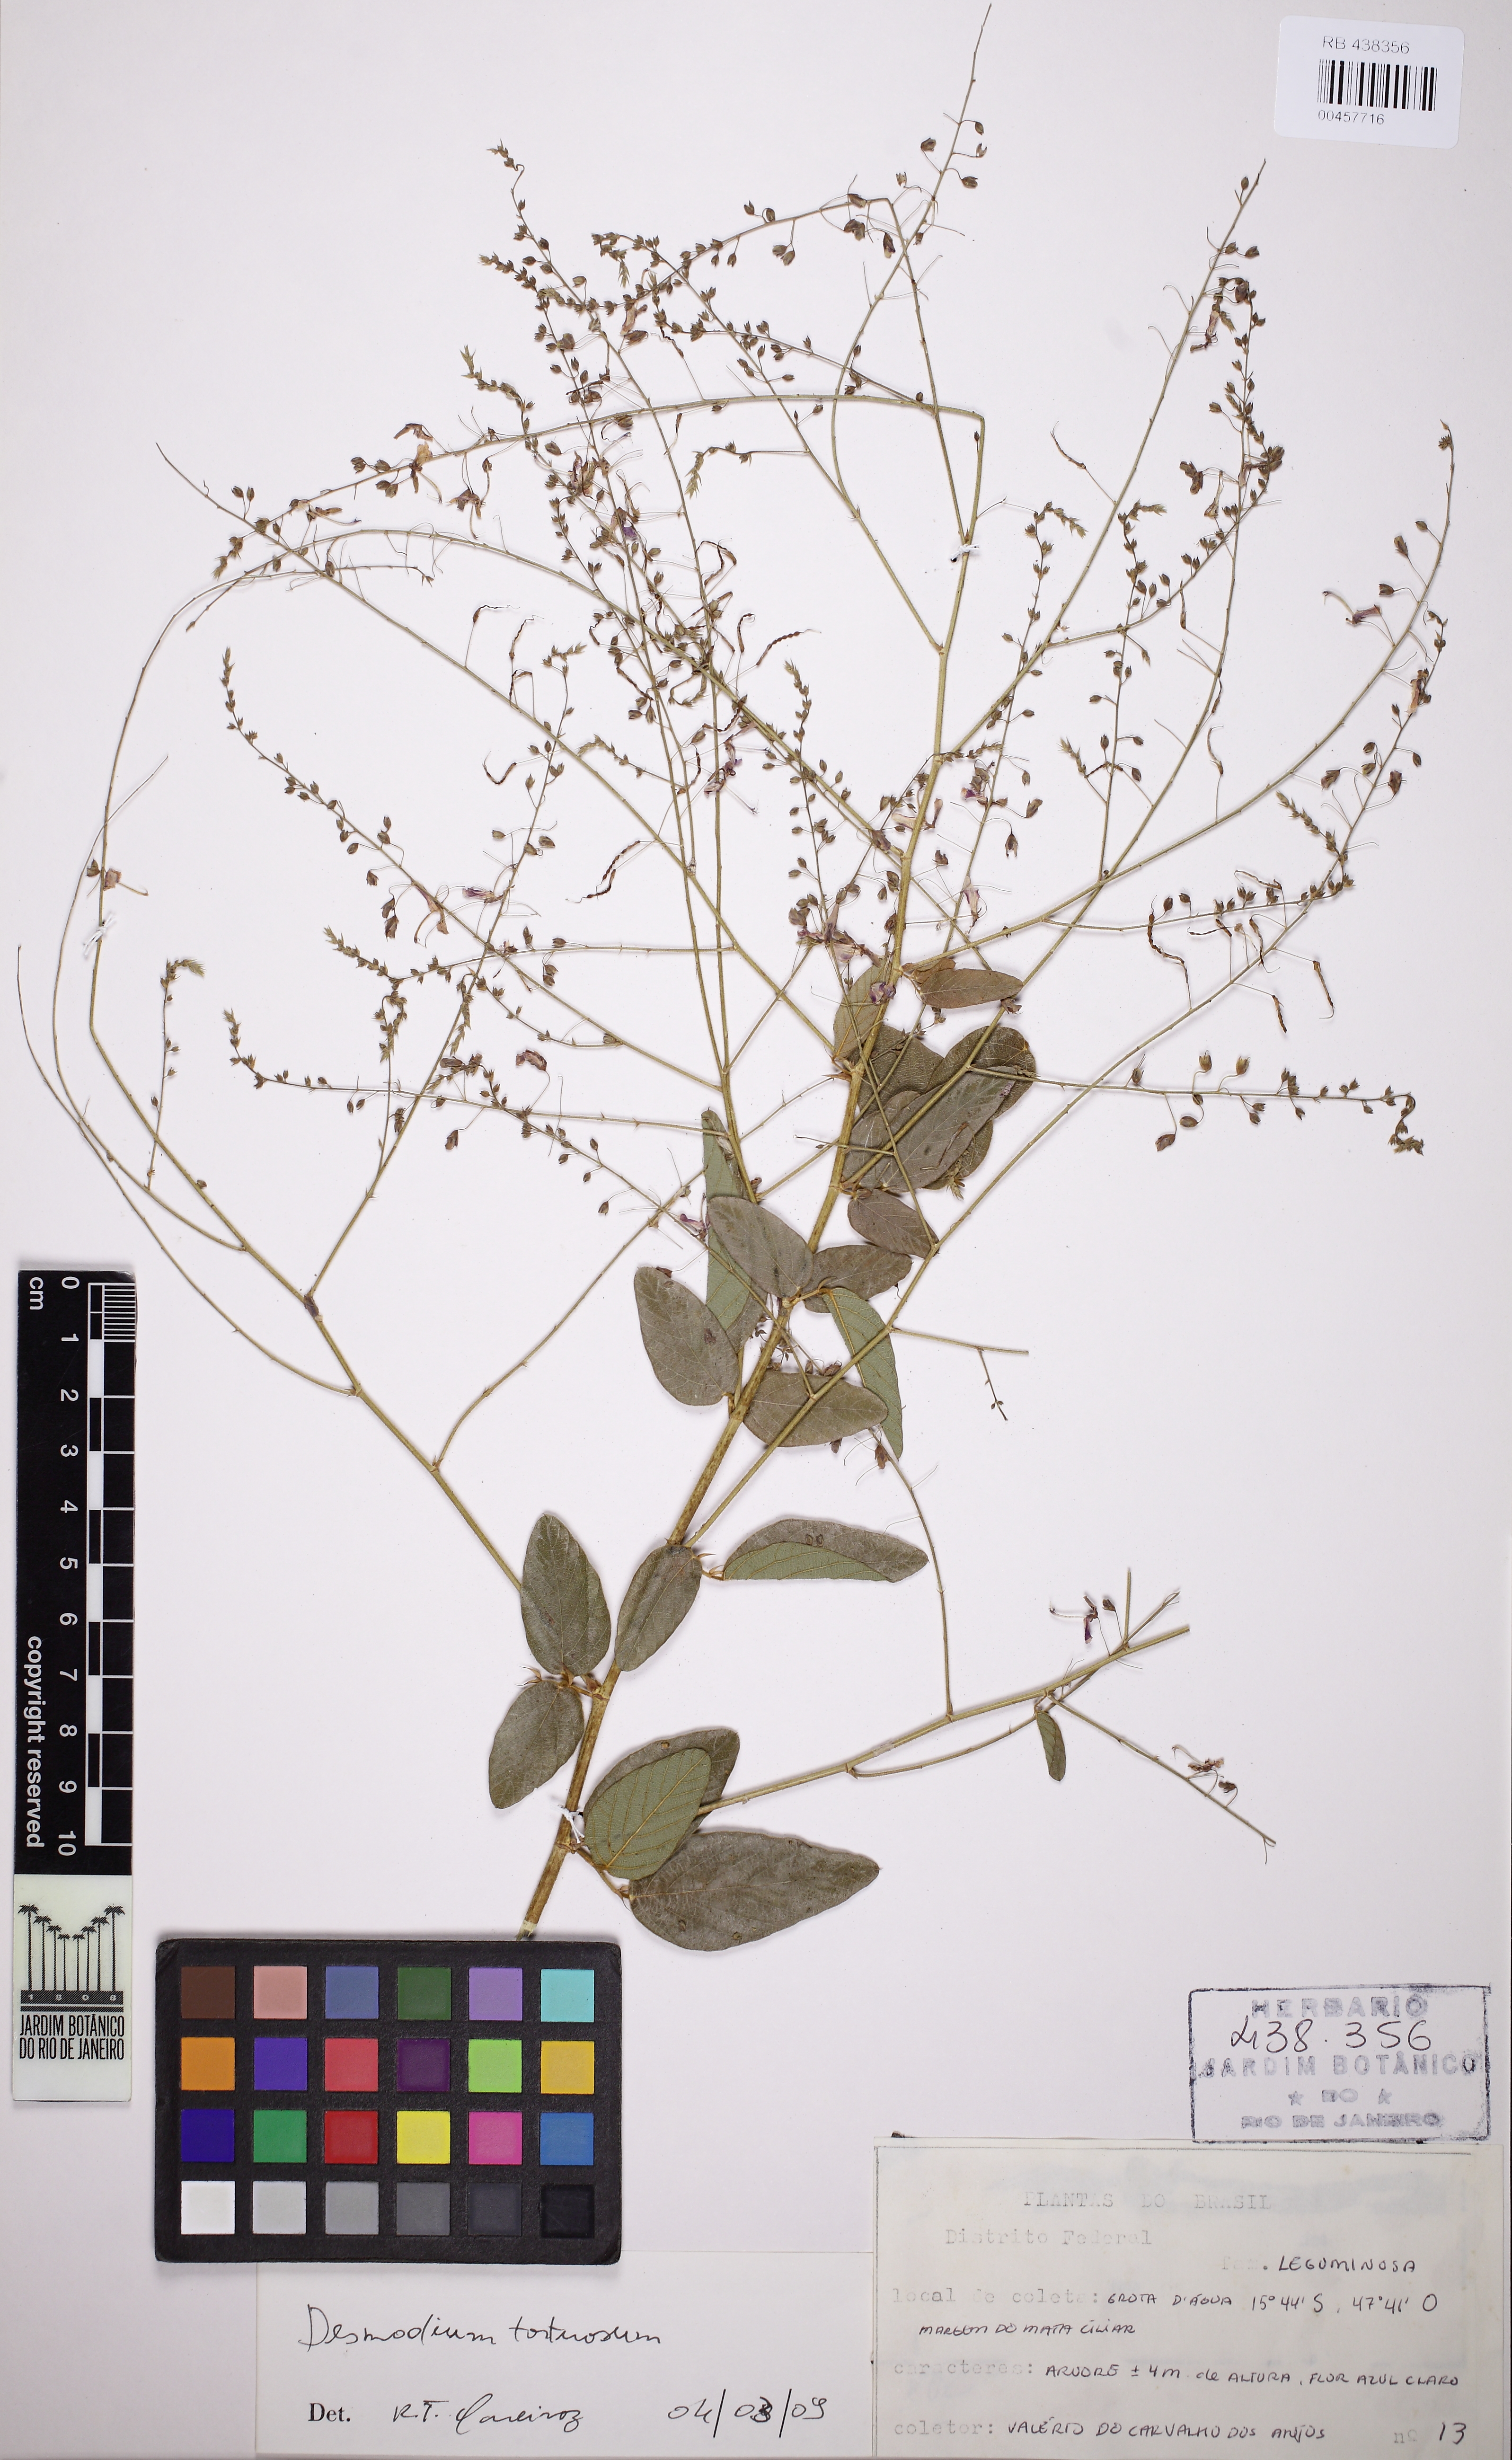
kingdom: Plantae
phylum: Tracheophyta
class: Magnoliopsida
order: Fabales
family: Fabaceae
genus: Desmodium
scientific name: Desmodium tortuosum
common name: Dixie ticktrefoil
